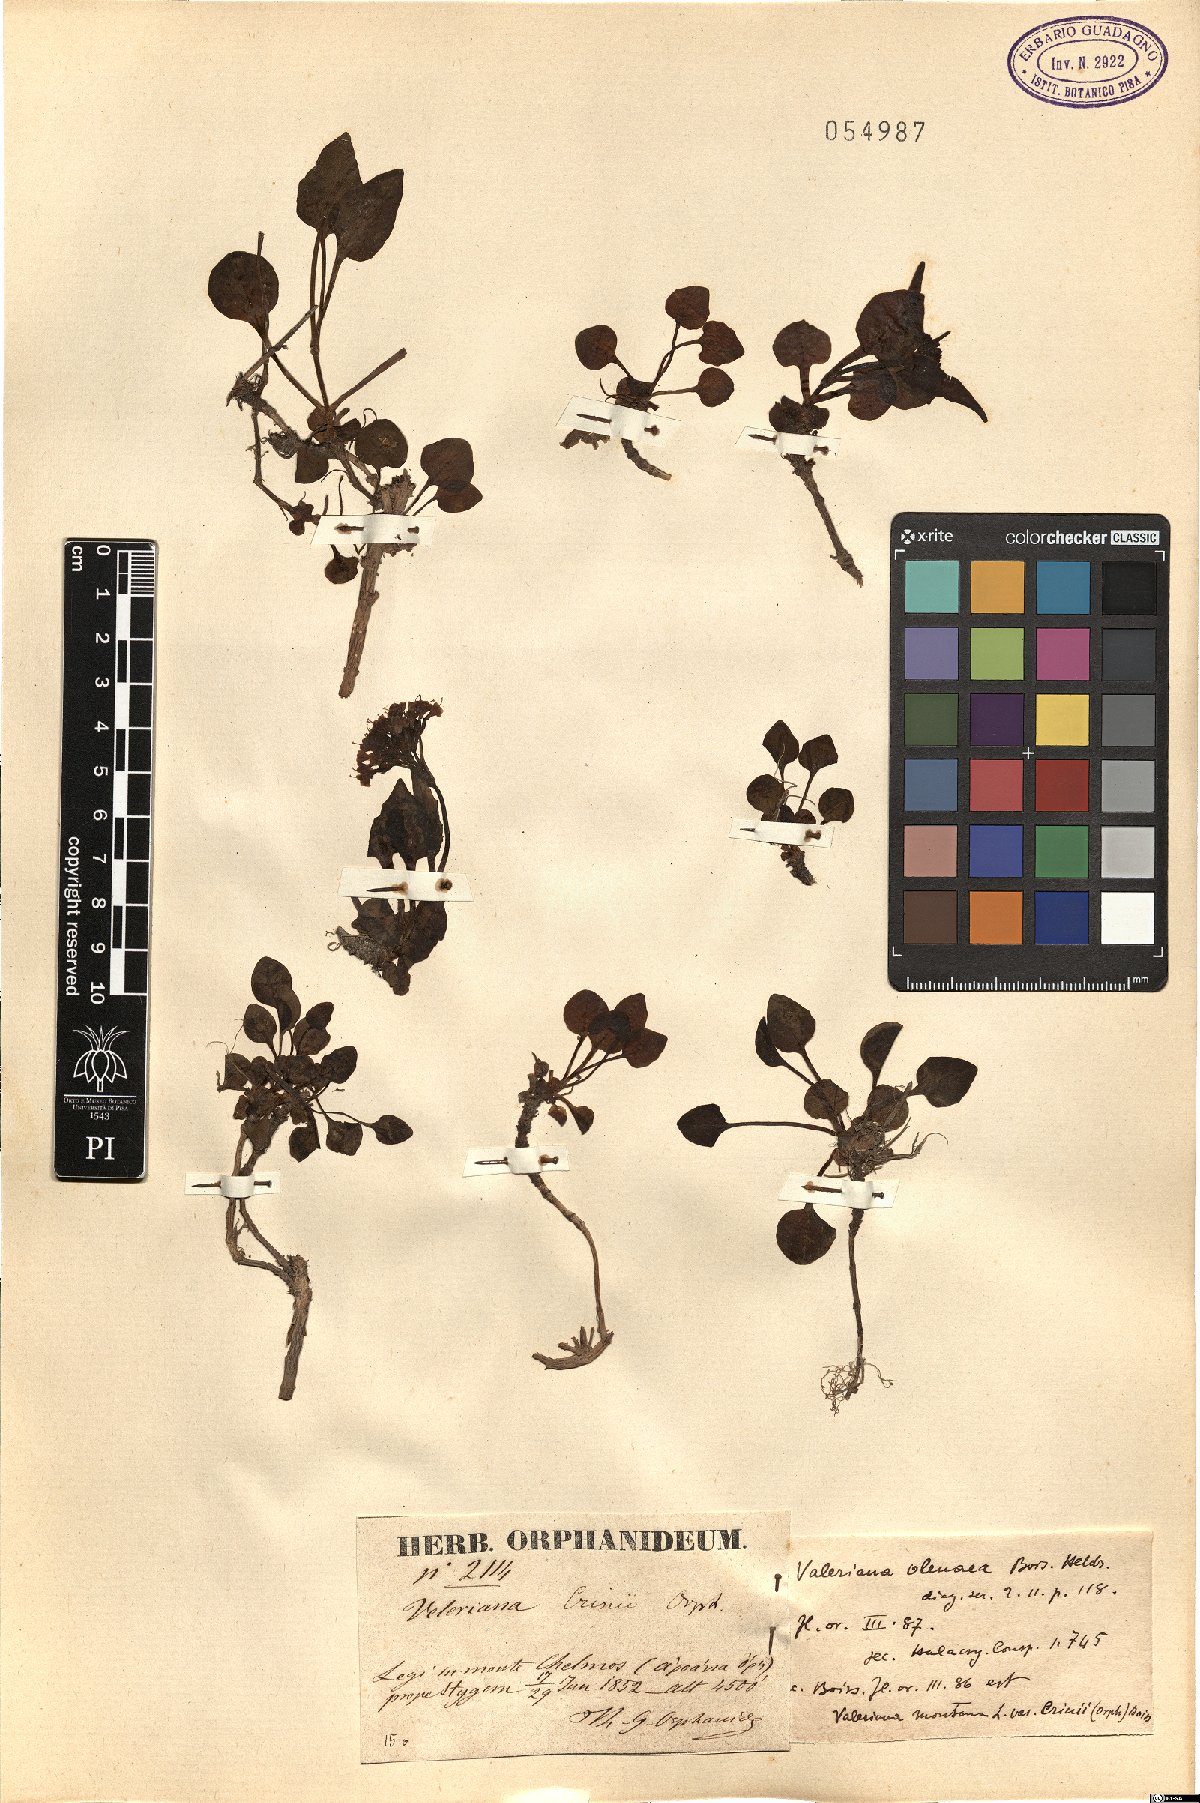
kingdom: Plantae
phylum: Tracheophyta
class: Magnoliopsida
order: Dipsacales
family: Caprifoliaceae
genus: Valeriana
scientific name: Valeriana olenaea
